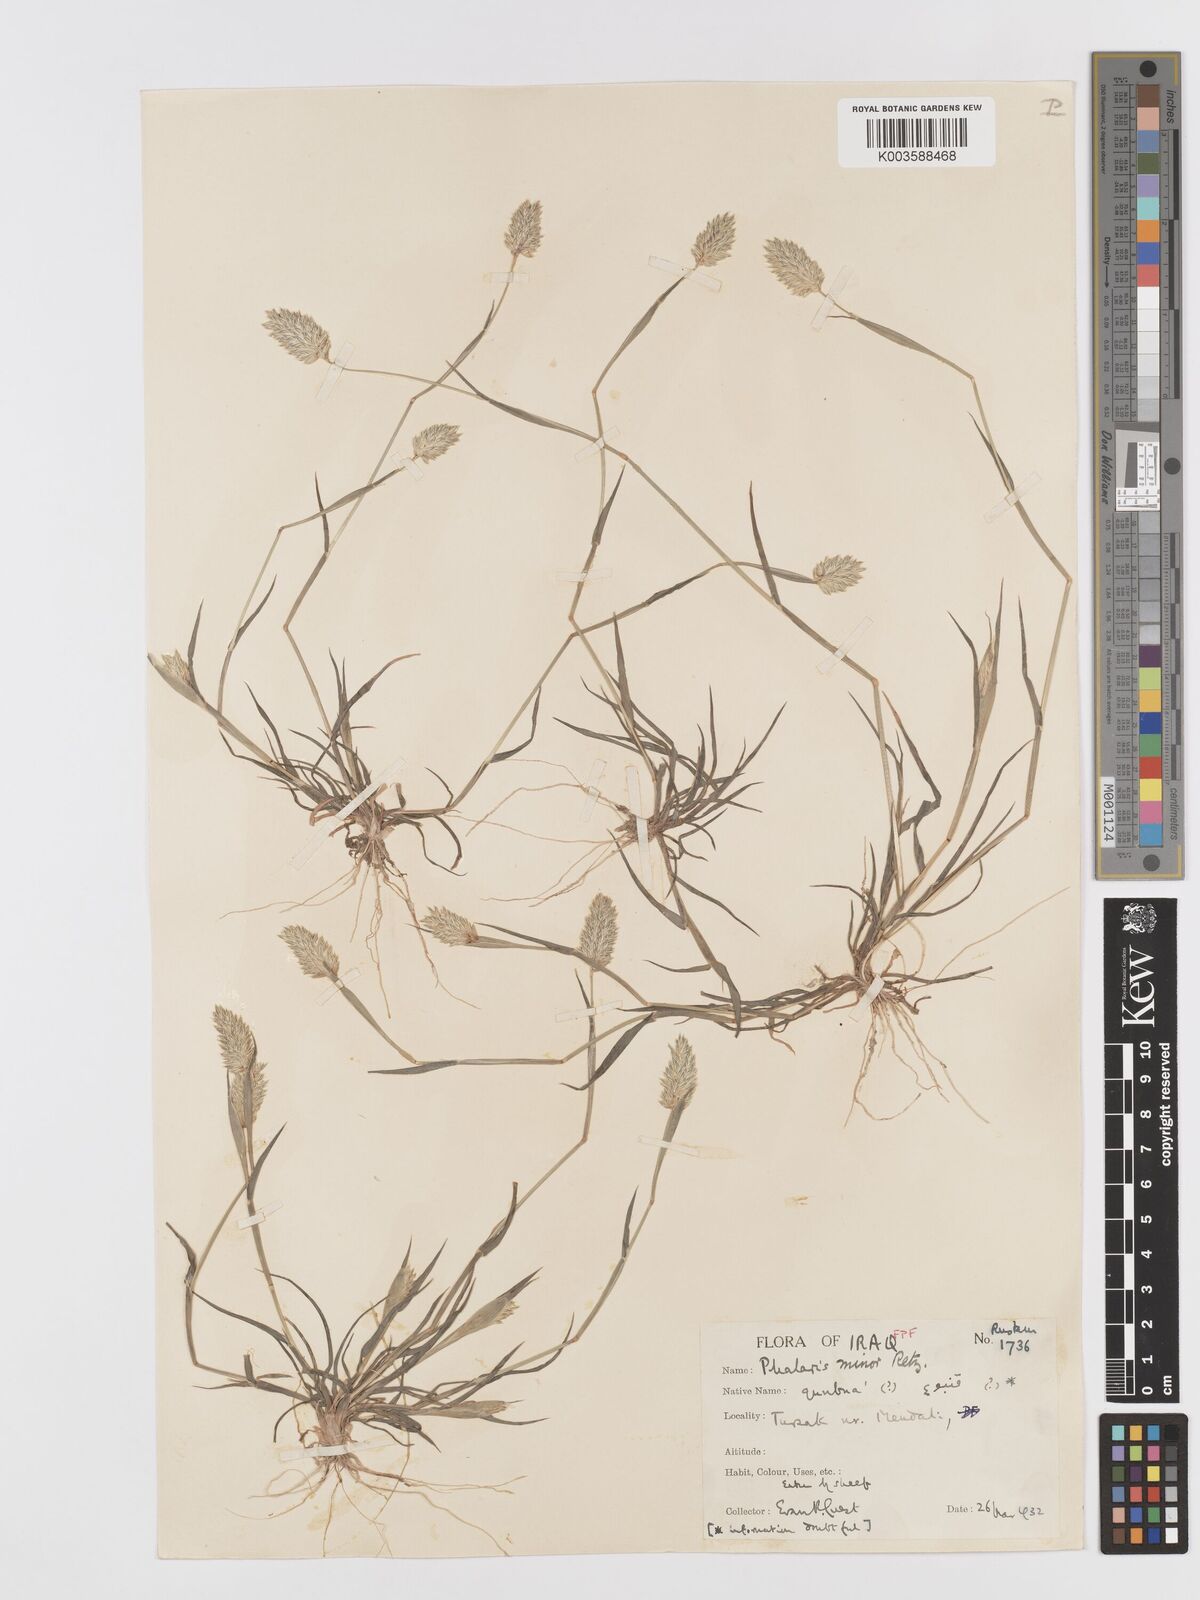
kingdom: Plantae
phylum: Tracheophyta
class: Liliopsida
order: Poales
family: Poaceae
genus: Phalaris
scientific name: Phalaris minor
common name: Littleseed canarygrass
